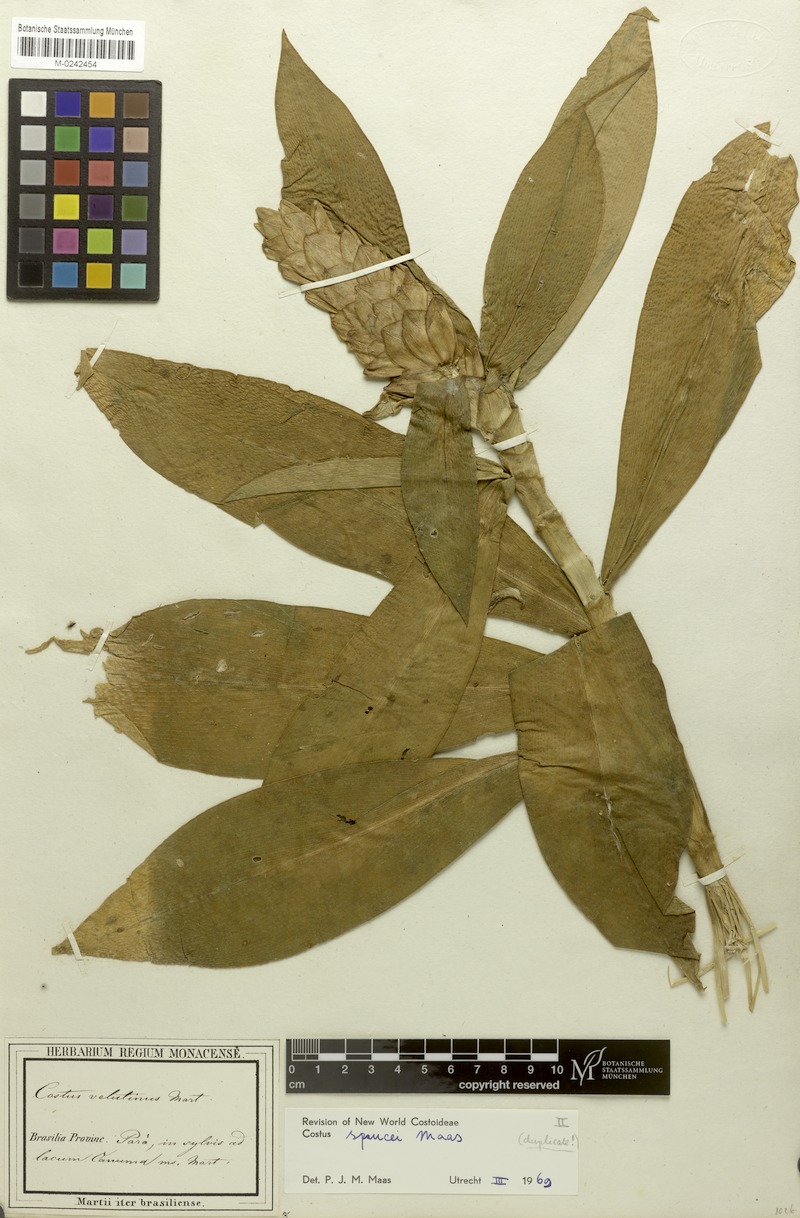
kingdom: Plantae
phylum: Tracheophyta
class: Liliopsida
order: Zingiberales
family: Costaceae
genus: Costus
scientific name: Costus sprucei
